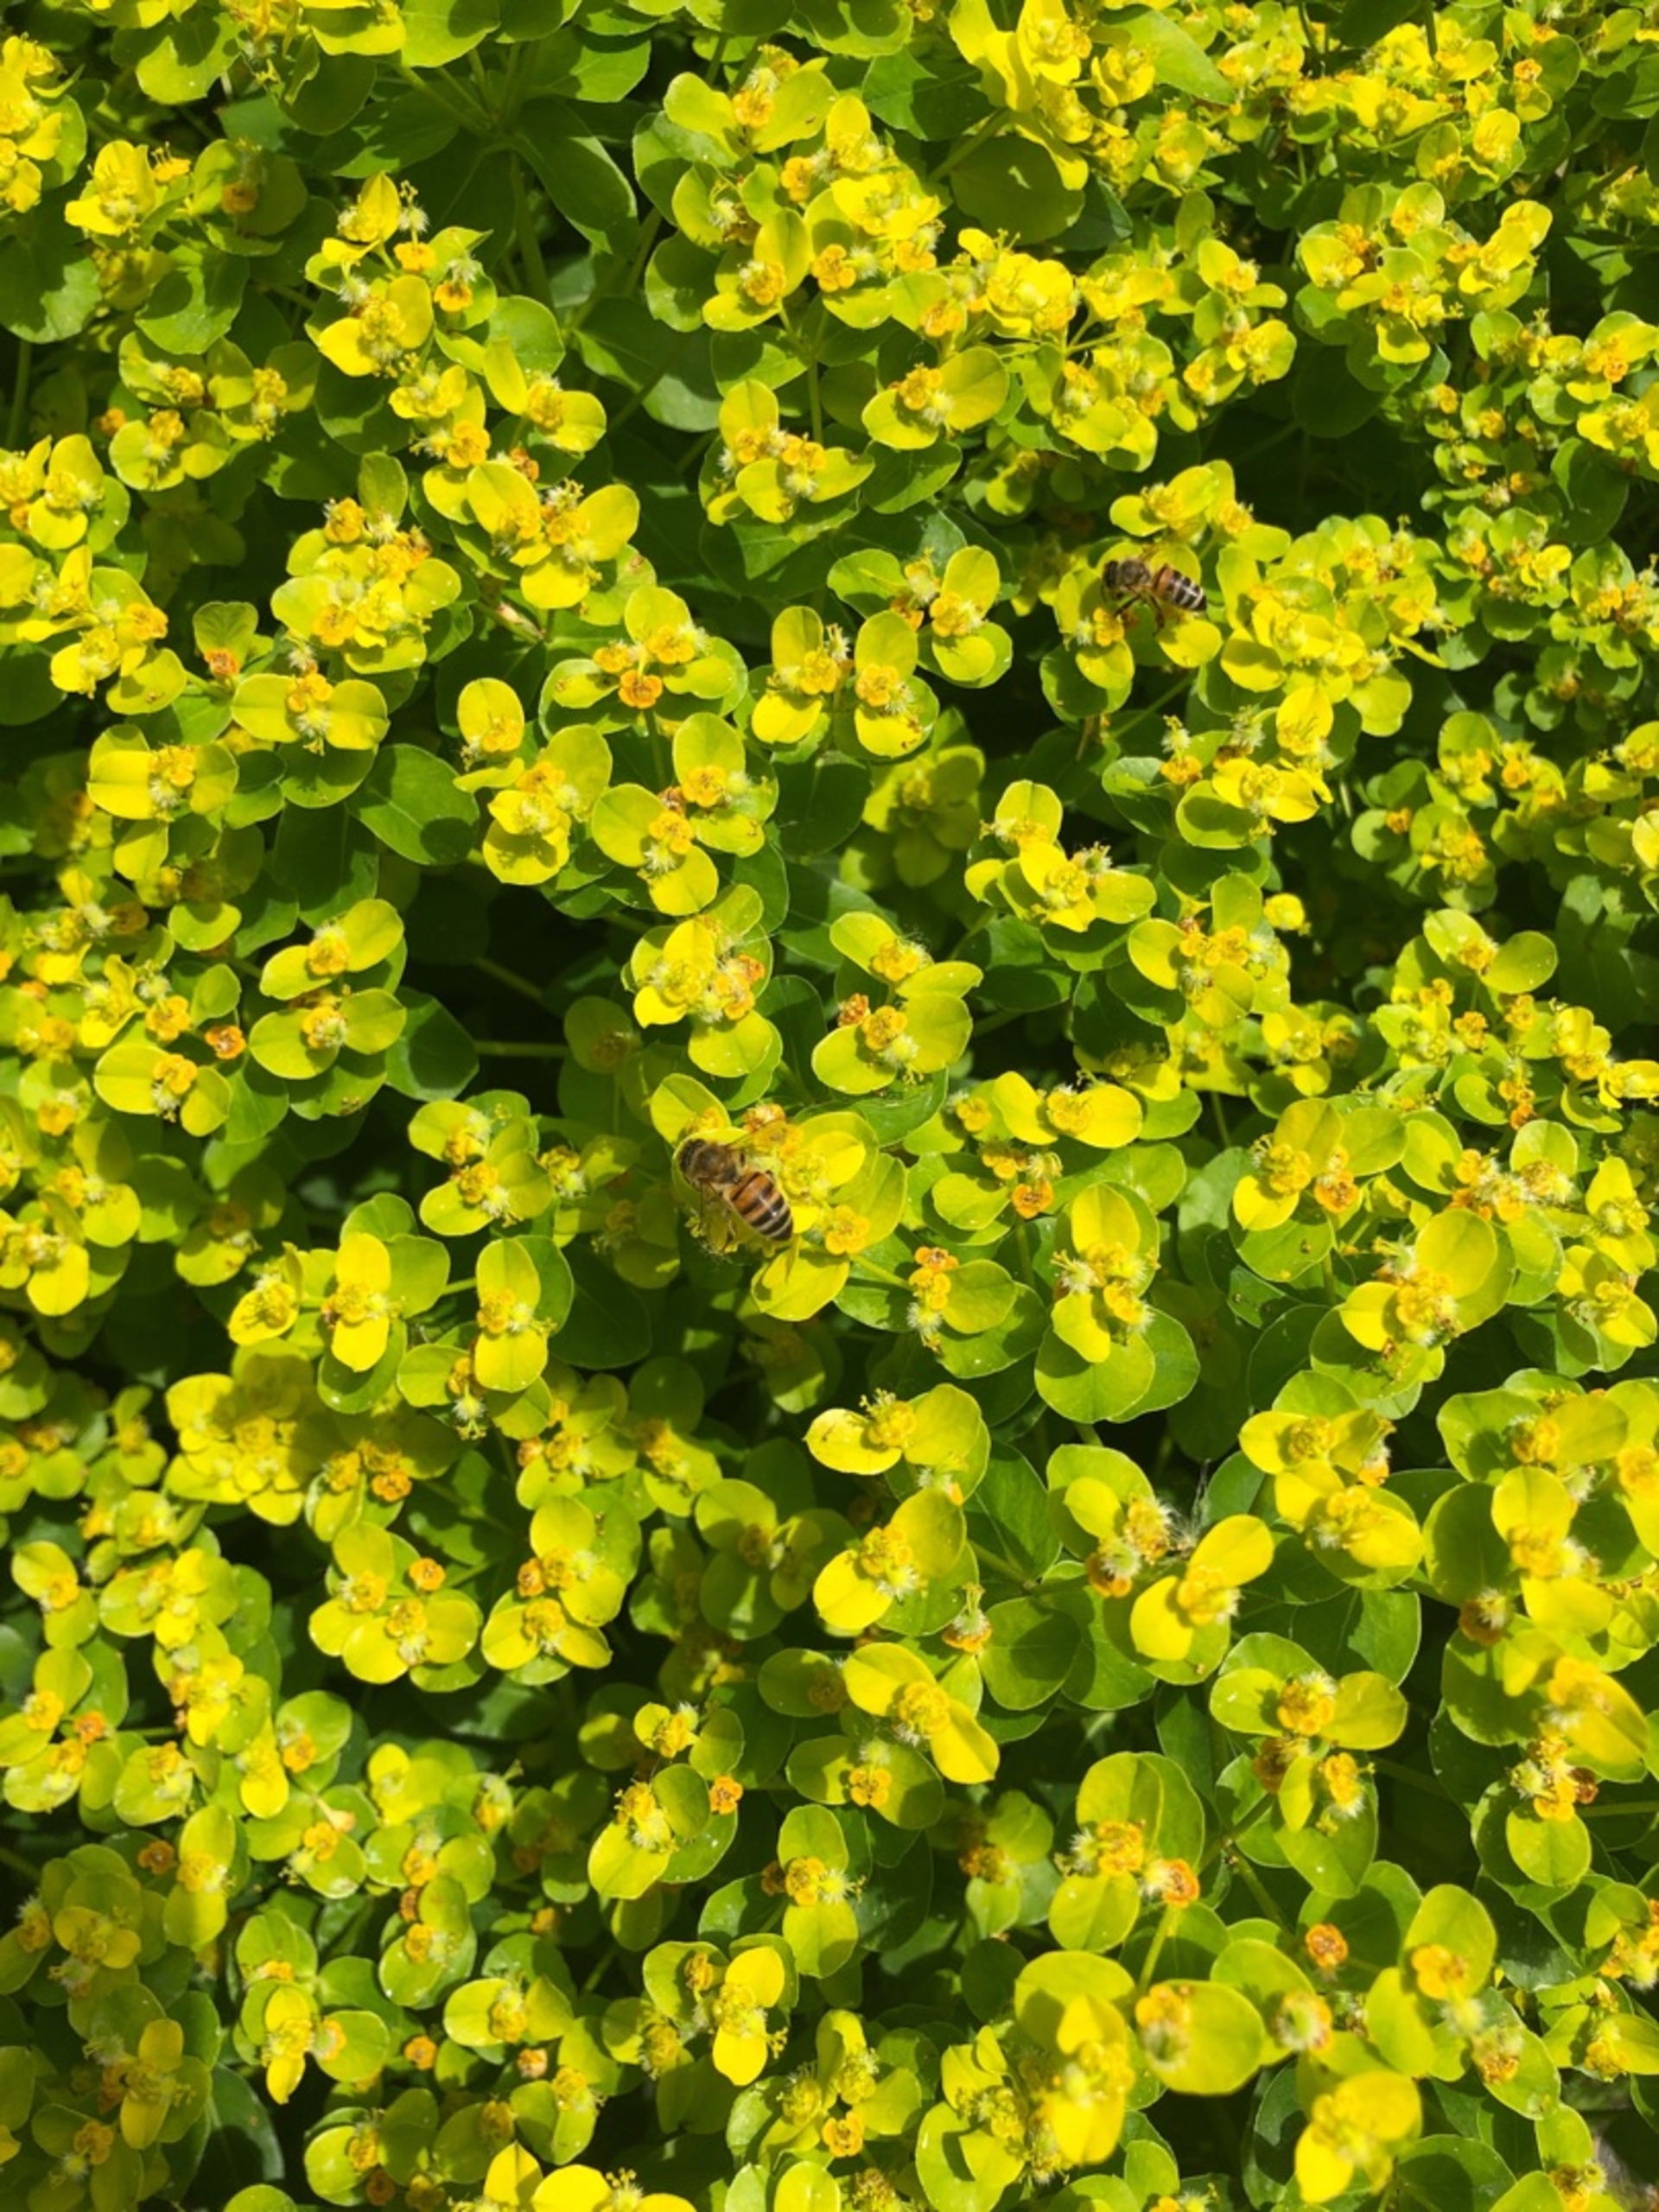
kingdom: Animalia
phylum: Arthropoda
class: Insecta
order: Hymenoptera
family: Apidae
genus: Apis
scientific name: Apis mellifera
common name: Honningbi
